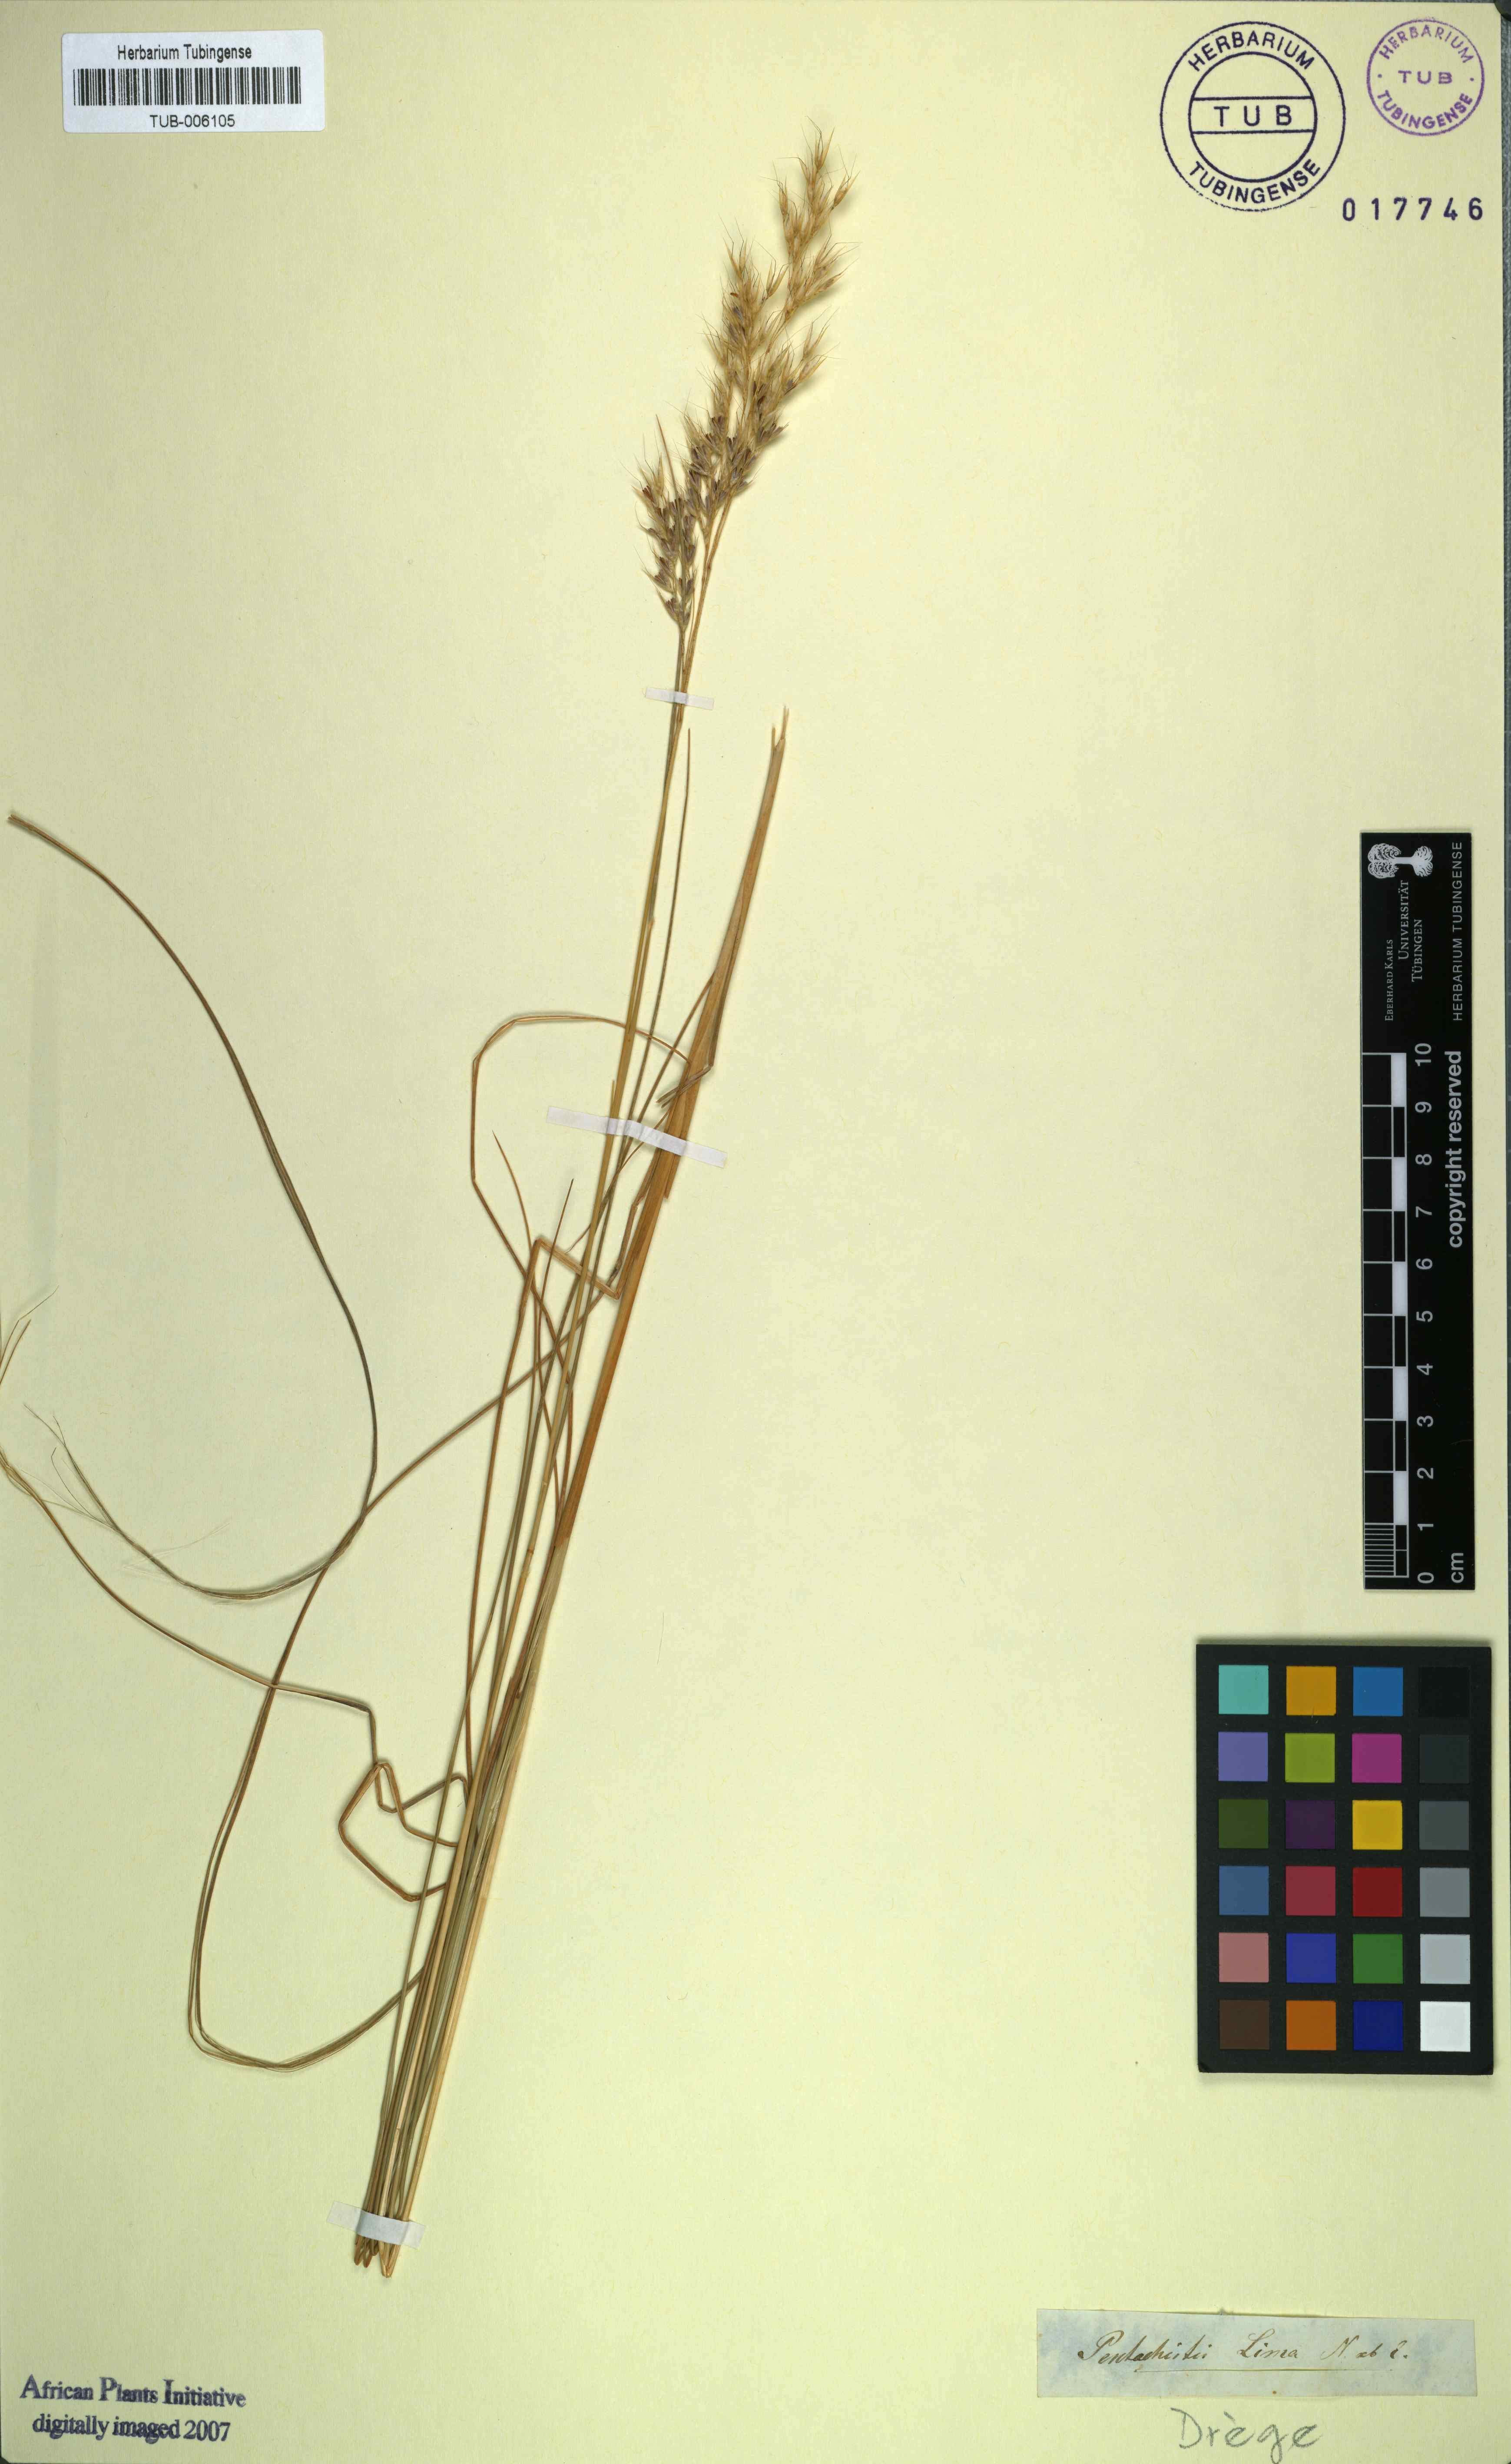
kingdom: Plantae
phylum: Tracheophyta
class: Liliopsida
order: Poales
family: Poaceae
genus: Pentameris
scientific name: Pentameris lima
